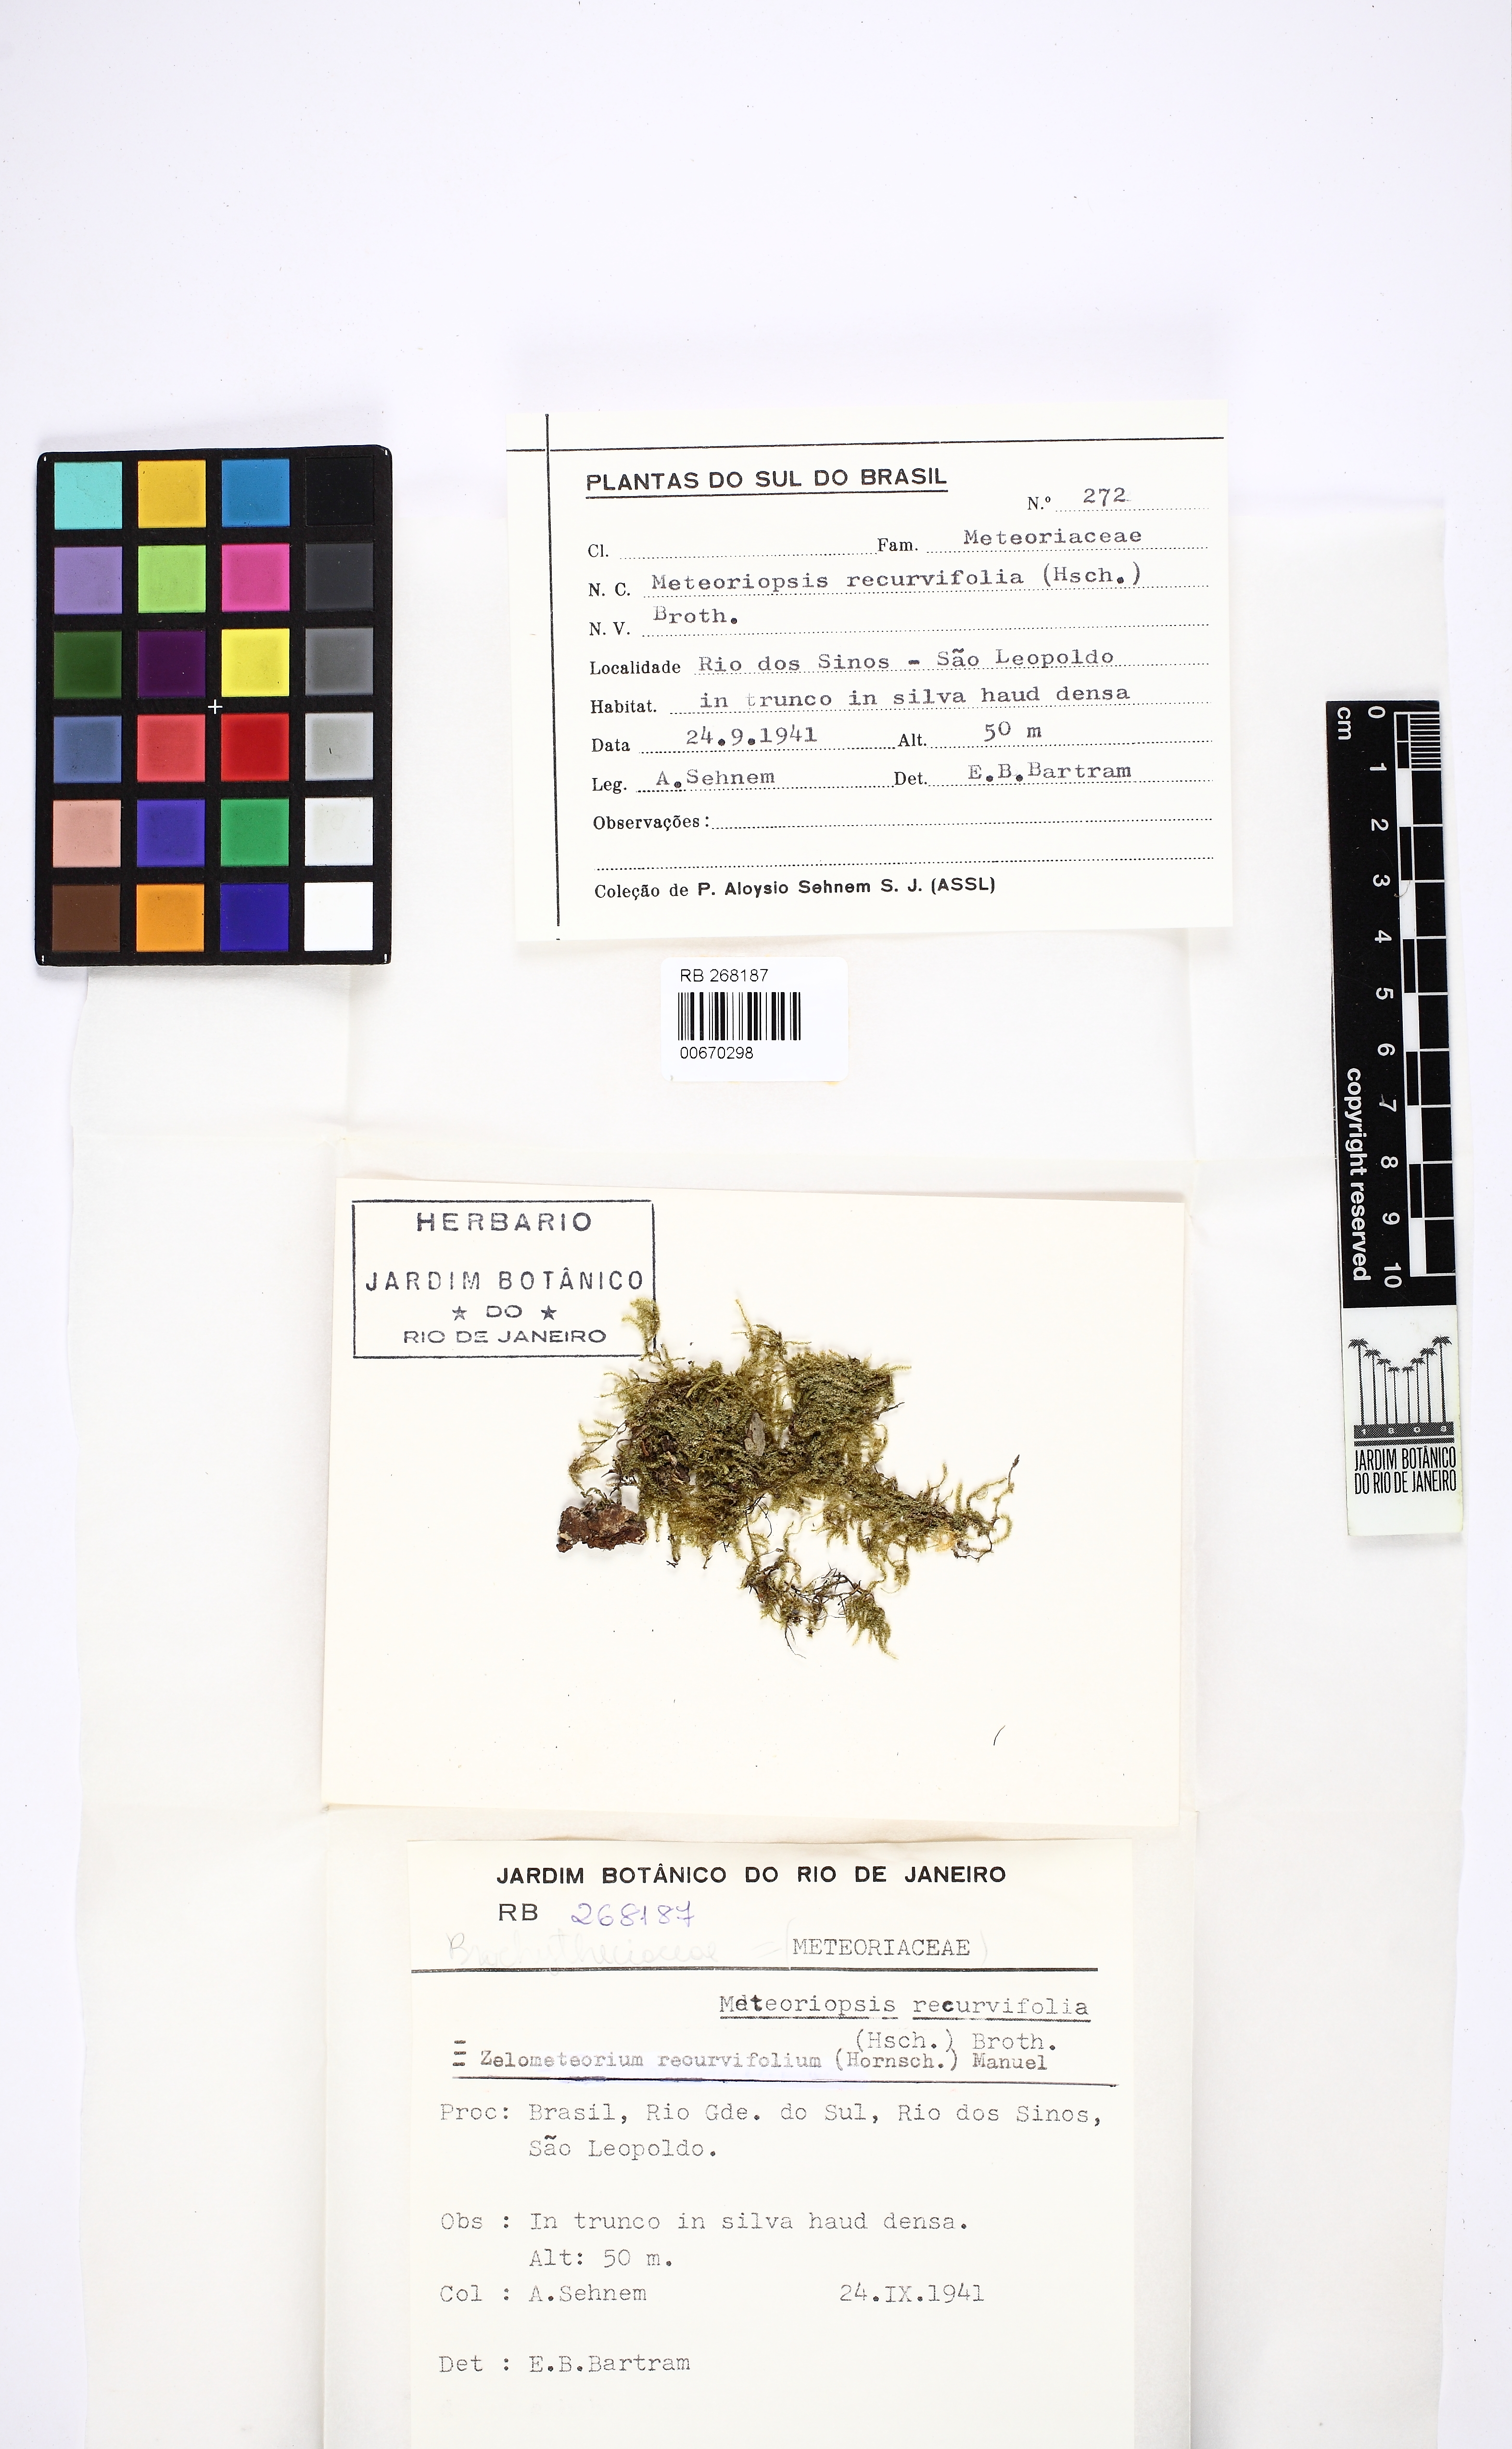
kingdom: Plantae
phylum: Bryophyta
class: Bryopsida
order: Hypnales
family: Brachytheciaceae
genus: Zelometeorium
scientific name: Zelometeorium recurvifolium
